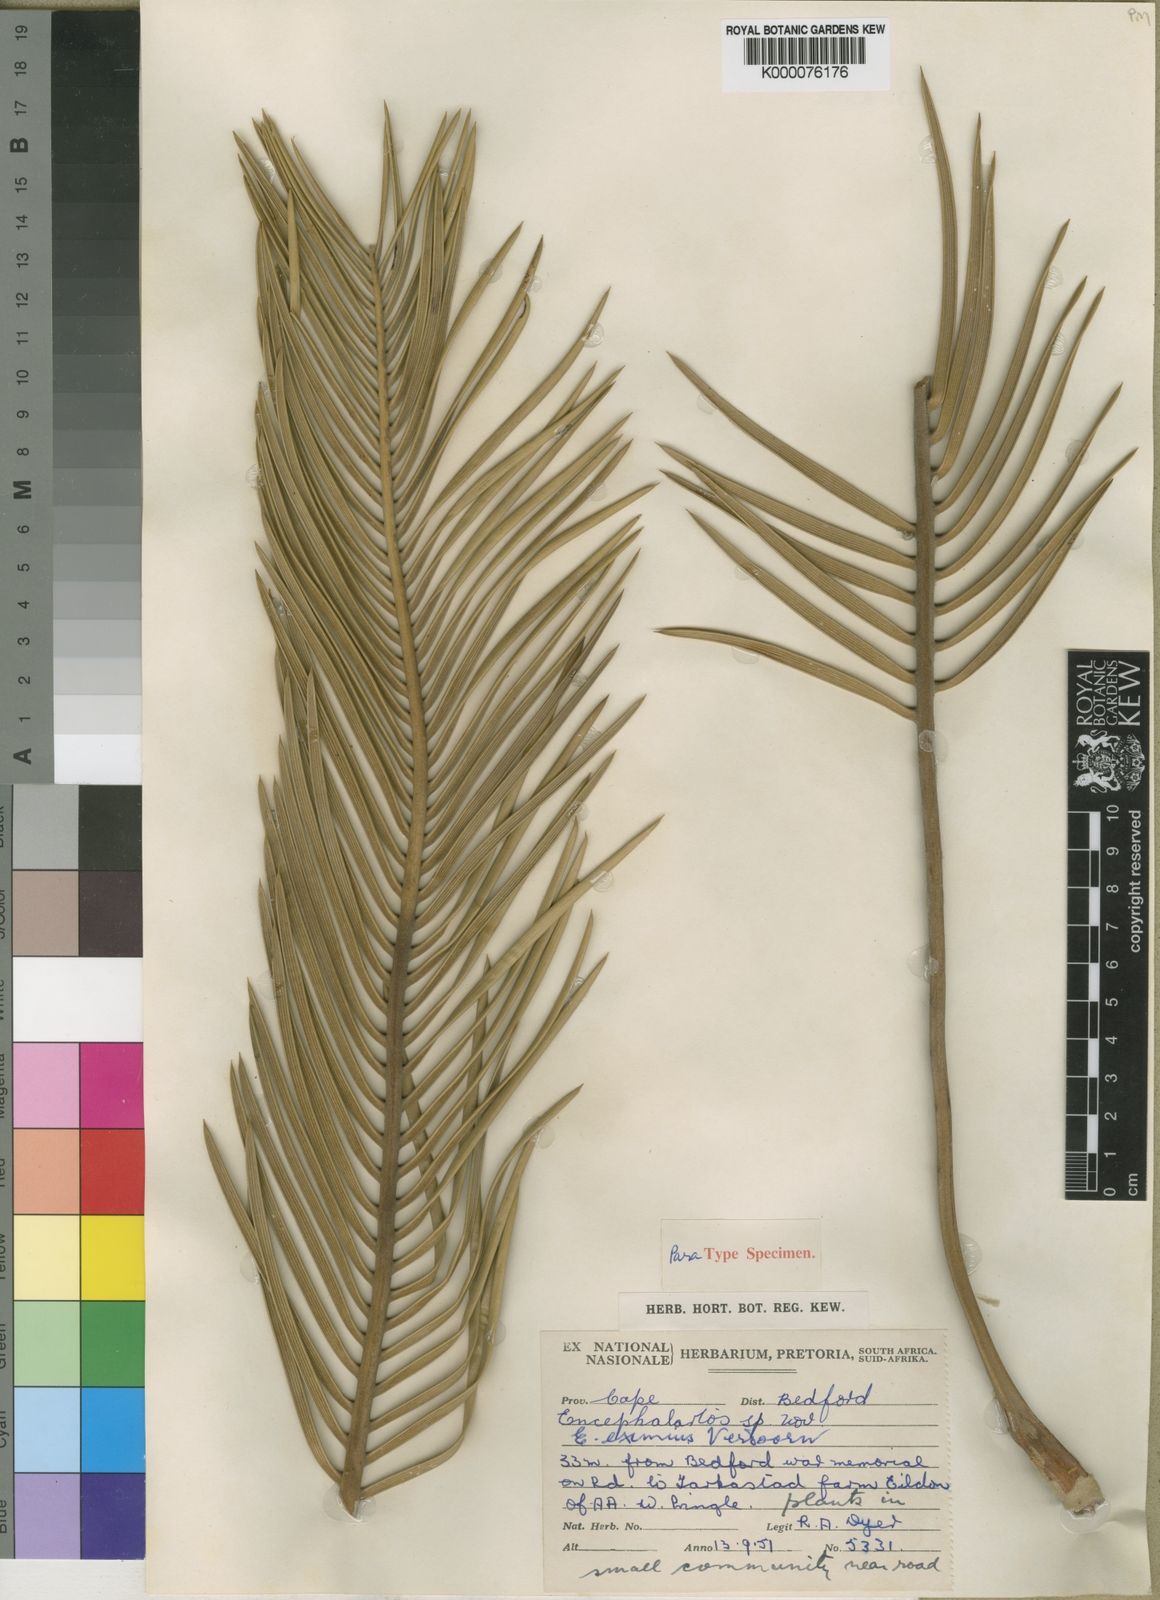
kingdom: Plantae
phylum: Tracheophyta
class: Cycadopsida
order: Cycadales
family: Zamiaceae
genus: Encephalartos
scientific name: Encephalartos cycadifolius
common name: Winterberg cycad
